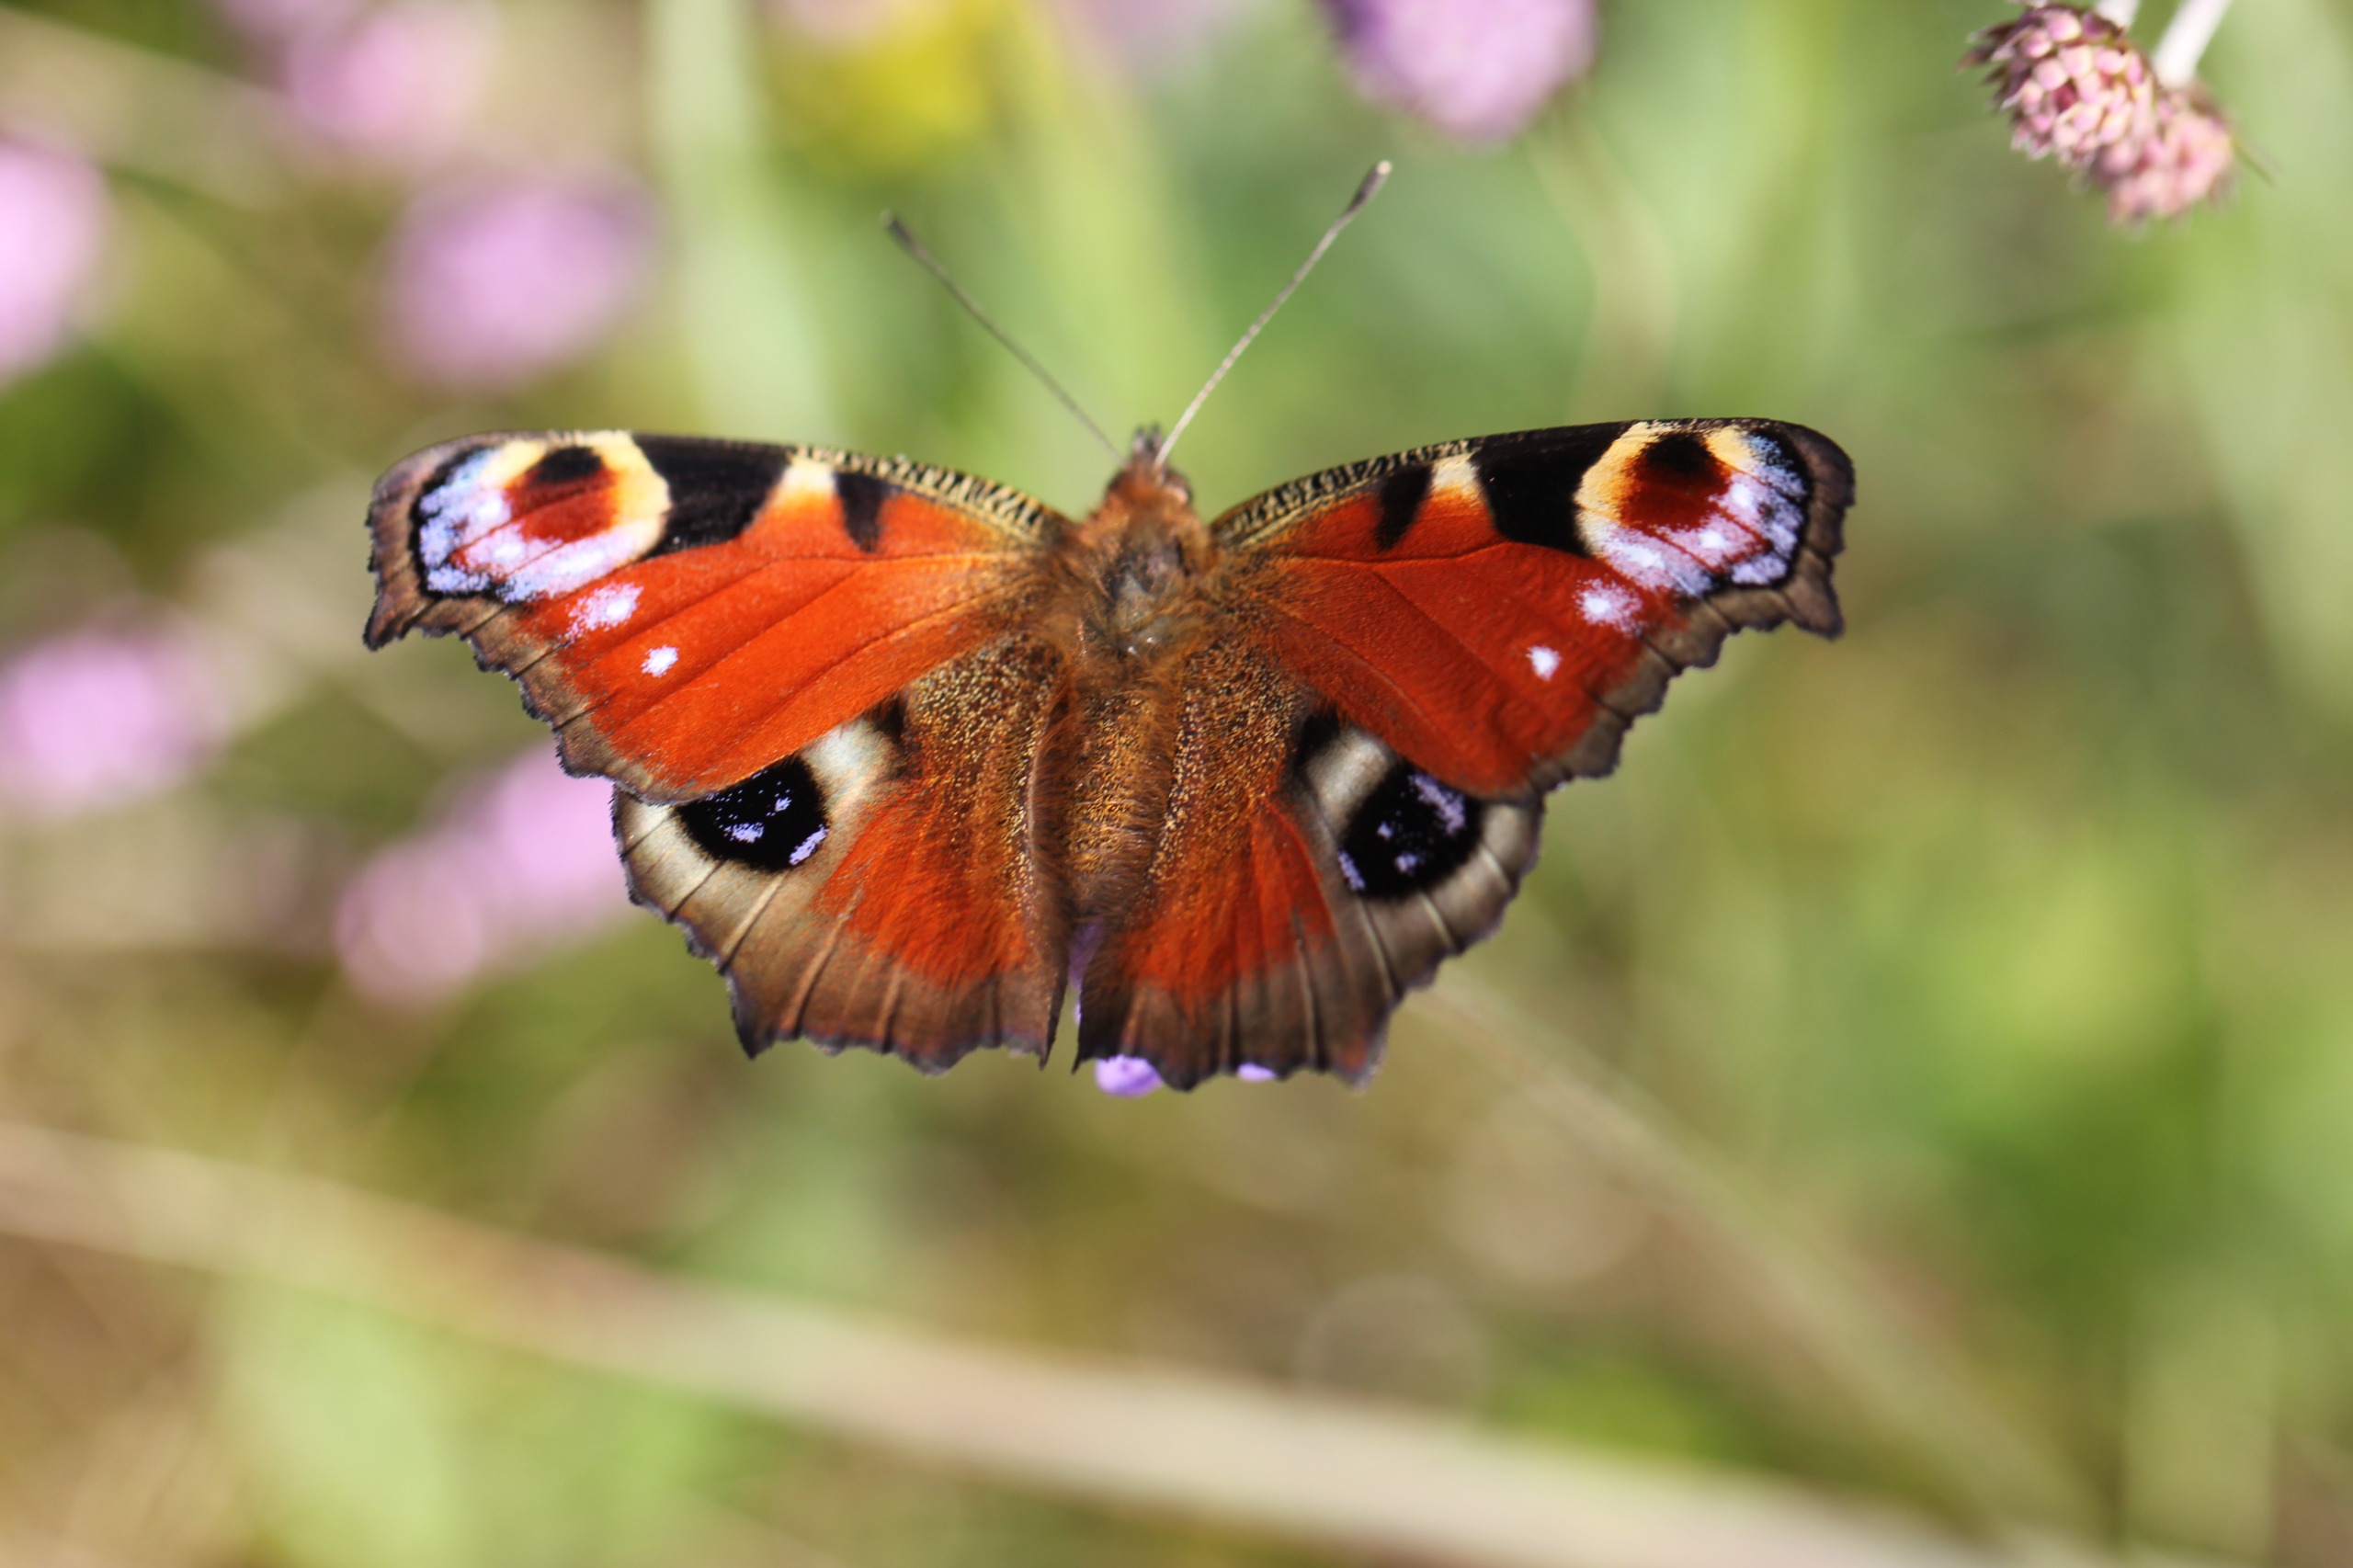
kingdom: Animalia
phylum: Arthropoda
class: Insecta
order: Lepidoptera
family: Nymphalidae
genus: Aglais
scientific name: Aglais io
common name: Dagpåfugleøje
